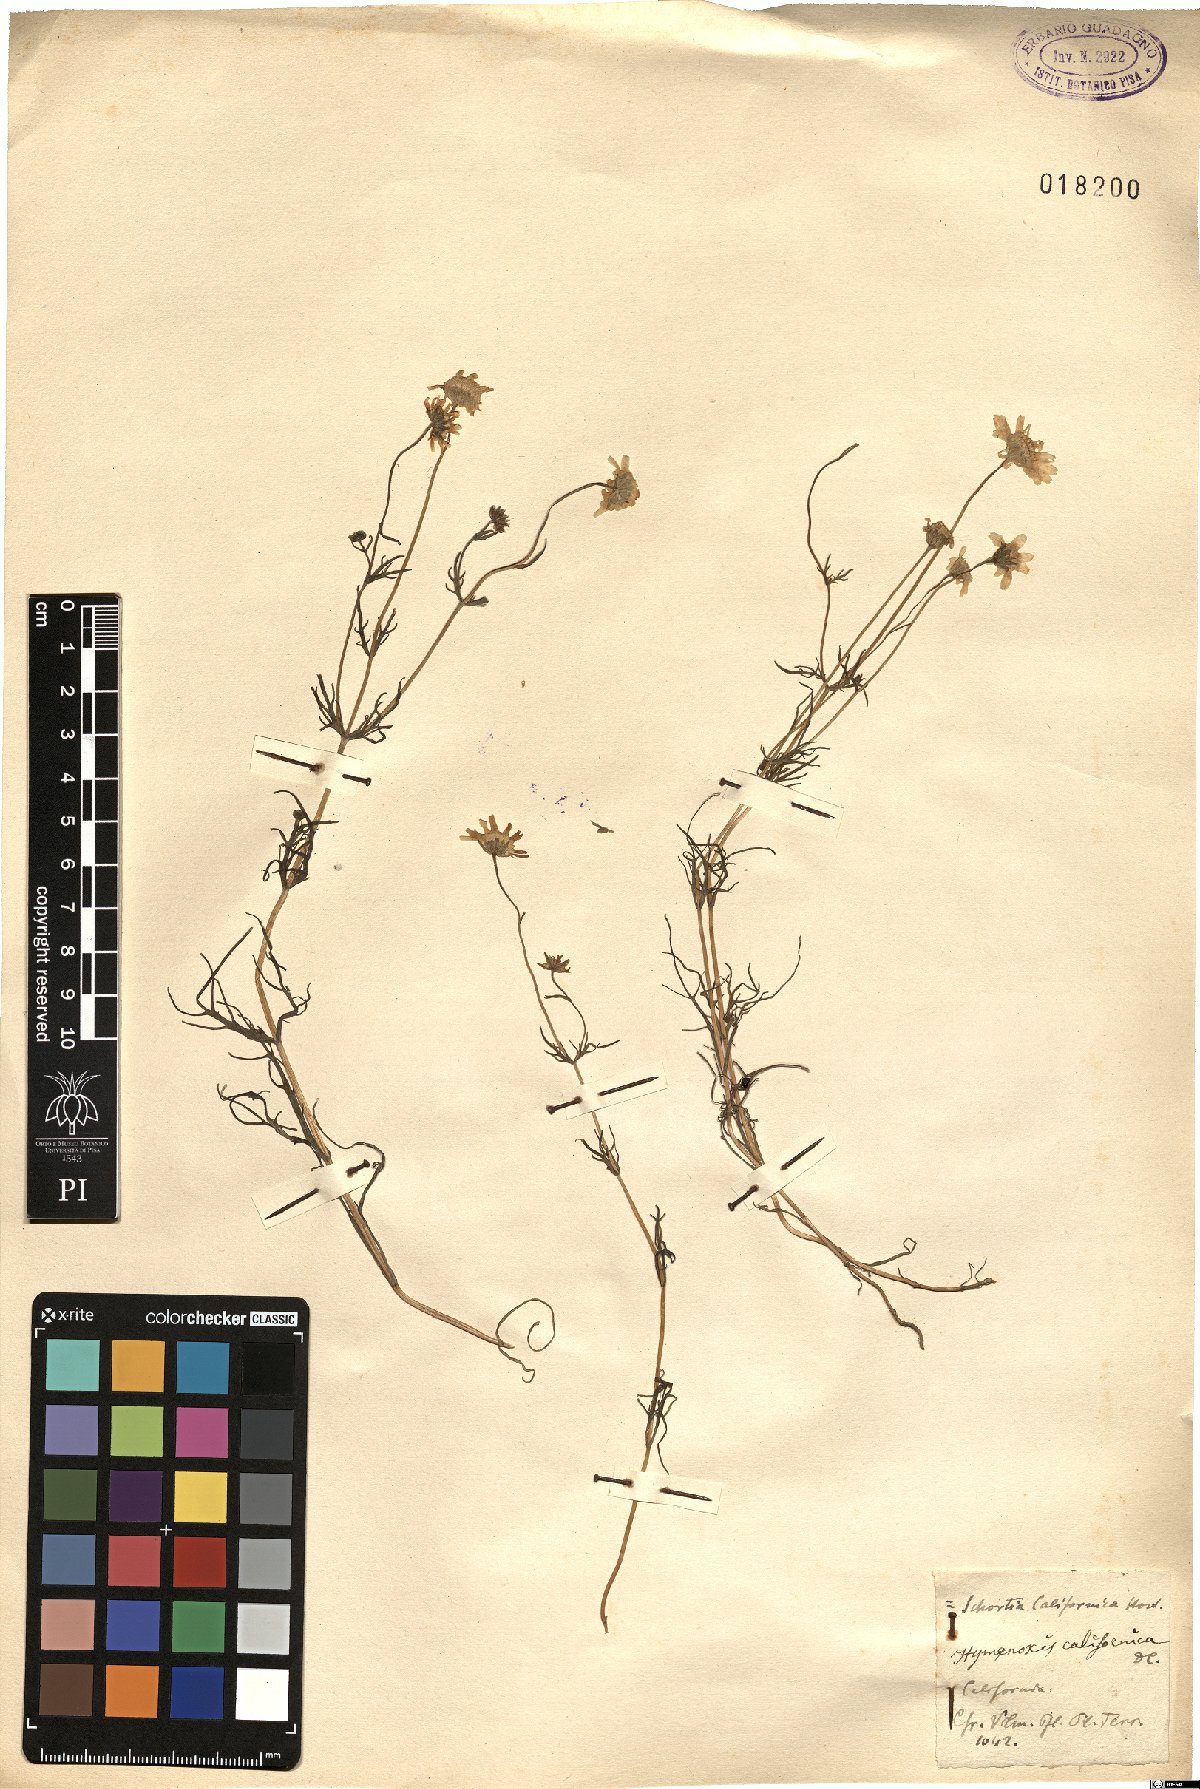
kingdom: Plantae
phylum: Tracheophyta
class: Magnoliopsida
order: Asterales
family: Asteraceae
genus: Lasthenia
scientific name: Lasthenia coronaria
